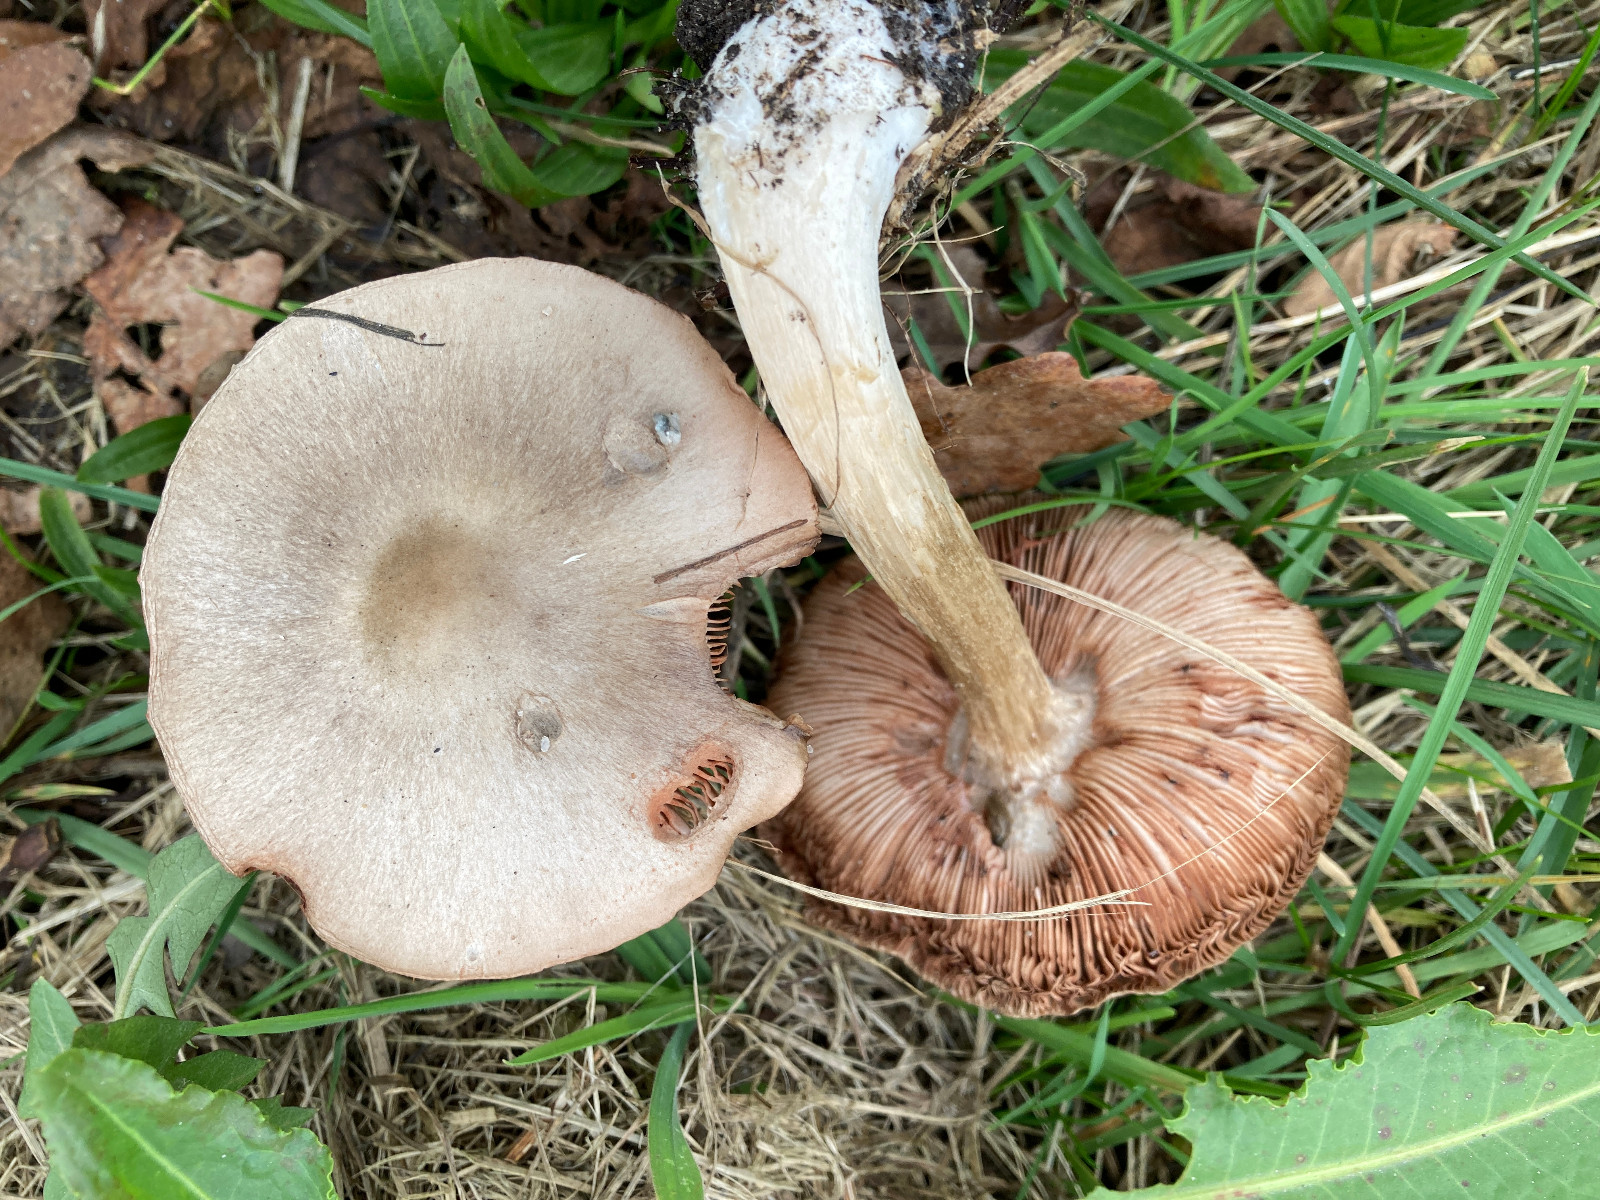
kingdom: Fungi
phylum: Basidiomycota
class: Agaricomycetes
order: Agaricales
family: Pluteaceae
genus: Volvopluteus
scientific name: Volvopluteus gloiocephalus
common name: høj posesvamp
